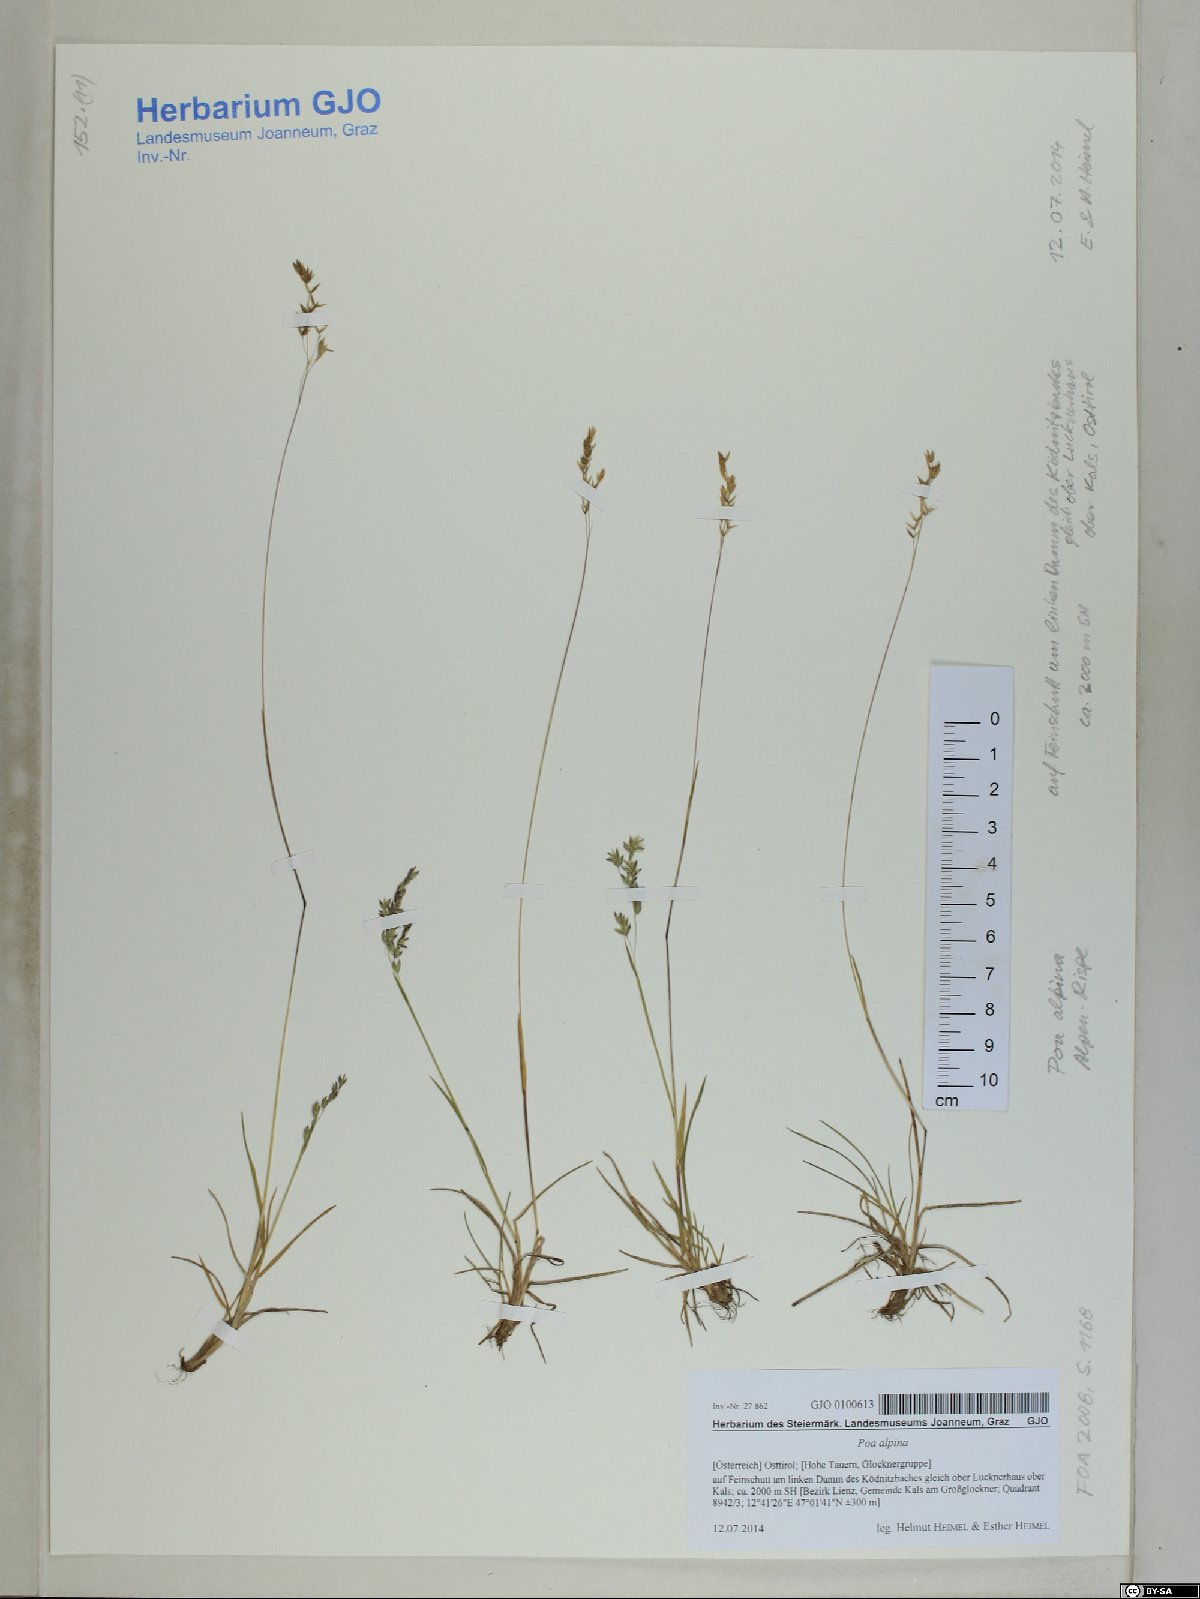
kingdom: Plantae
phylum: Tracheophyta
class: Liliopsida
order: Poales
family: Poaceae
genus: Poa
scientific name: Poa alpina
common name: Alpine bluegrass
